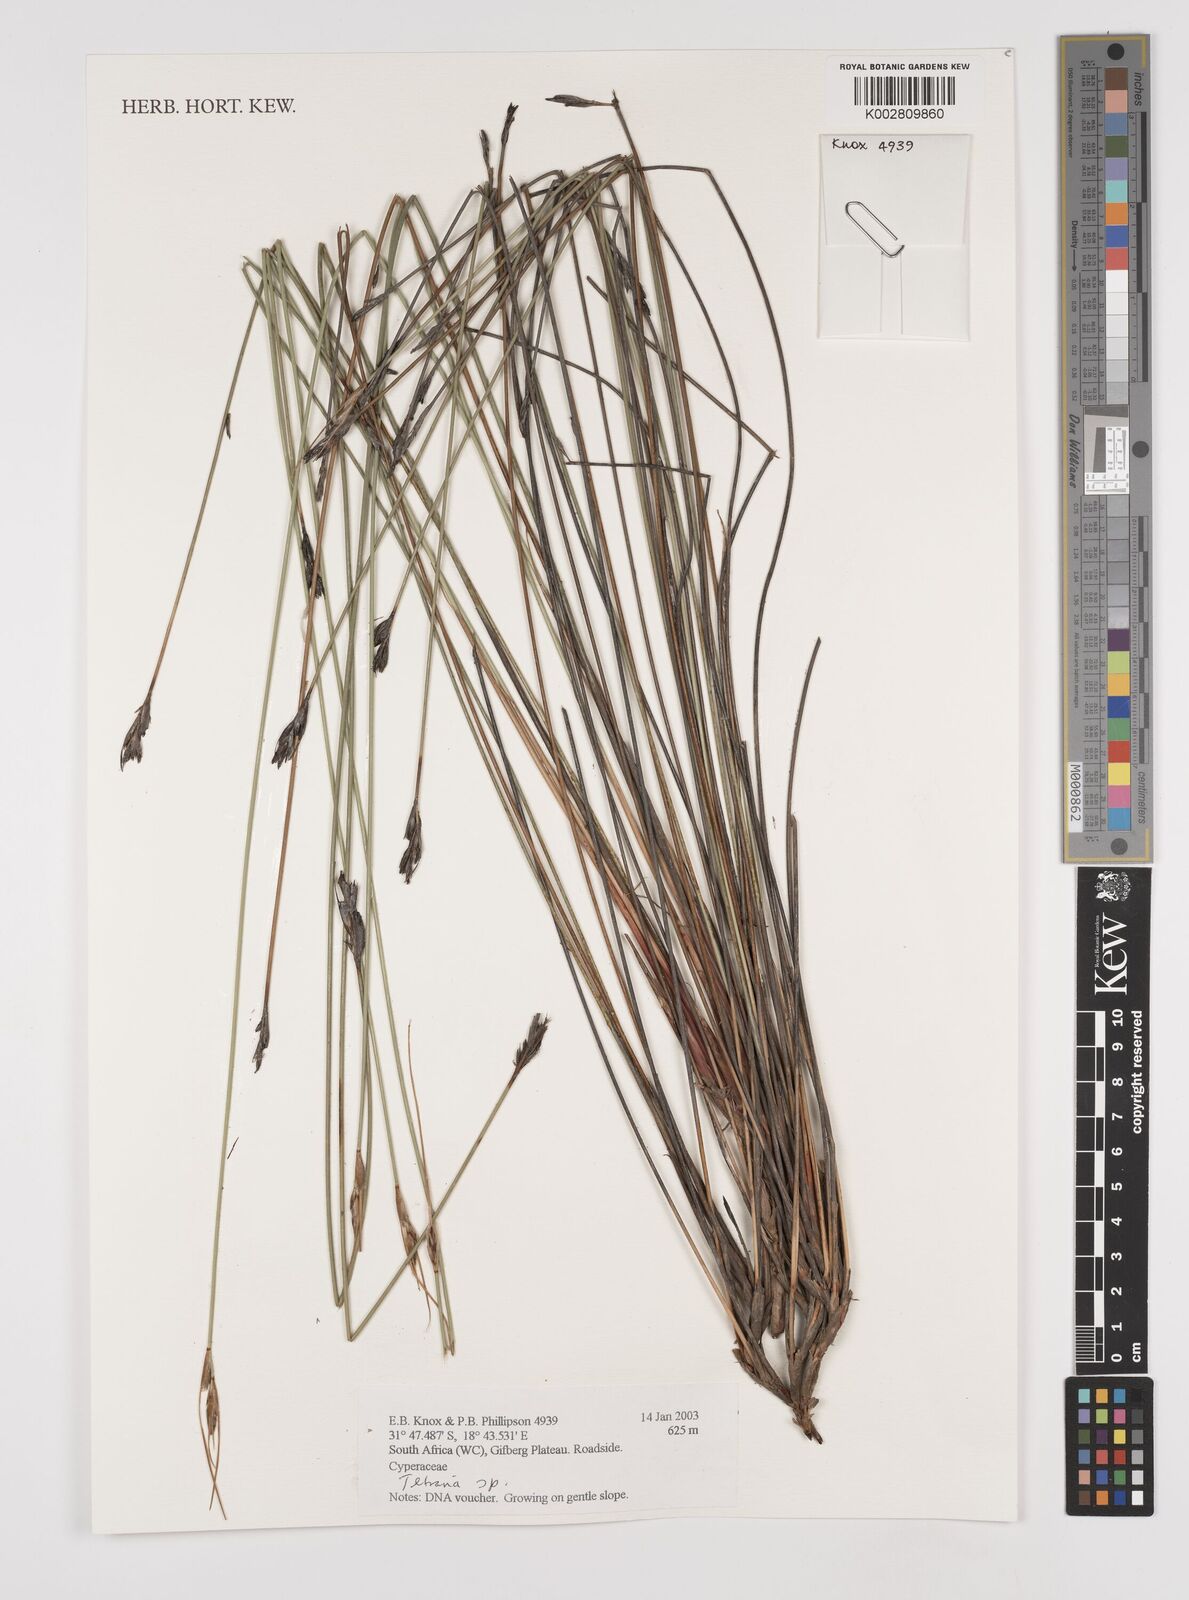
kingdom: Plantae
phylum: Tracheophyta
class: Liliopsida
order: Poales
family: Cyperaceae
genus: Schoenus
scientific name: Schoenus pseudoloreus
